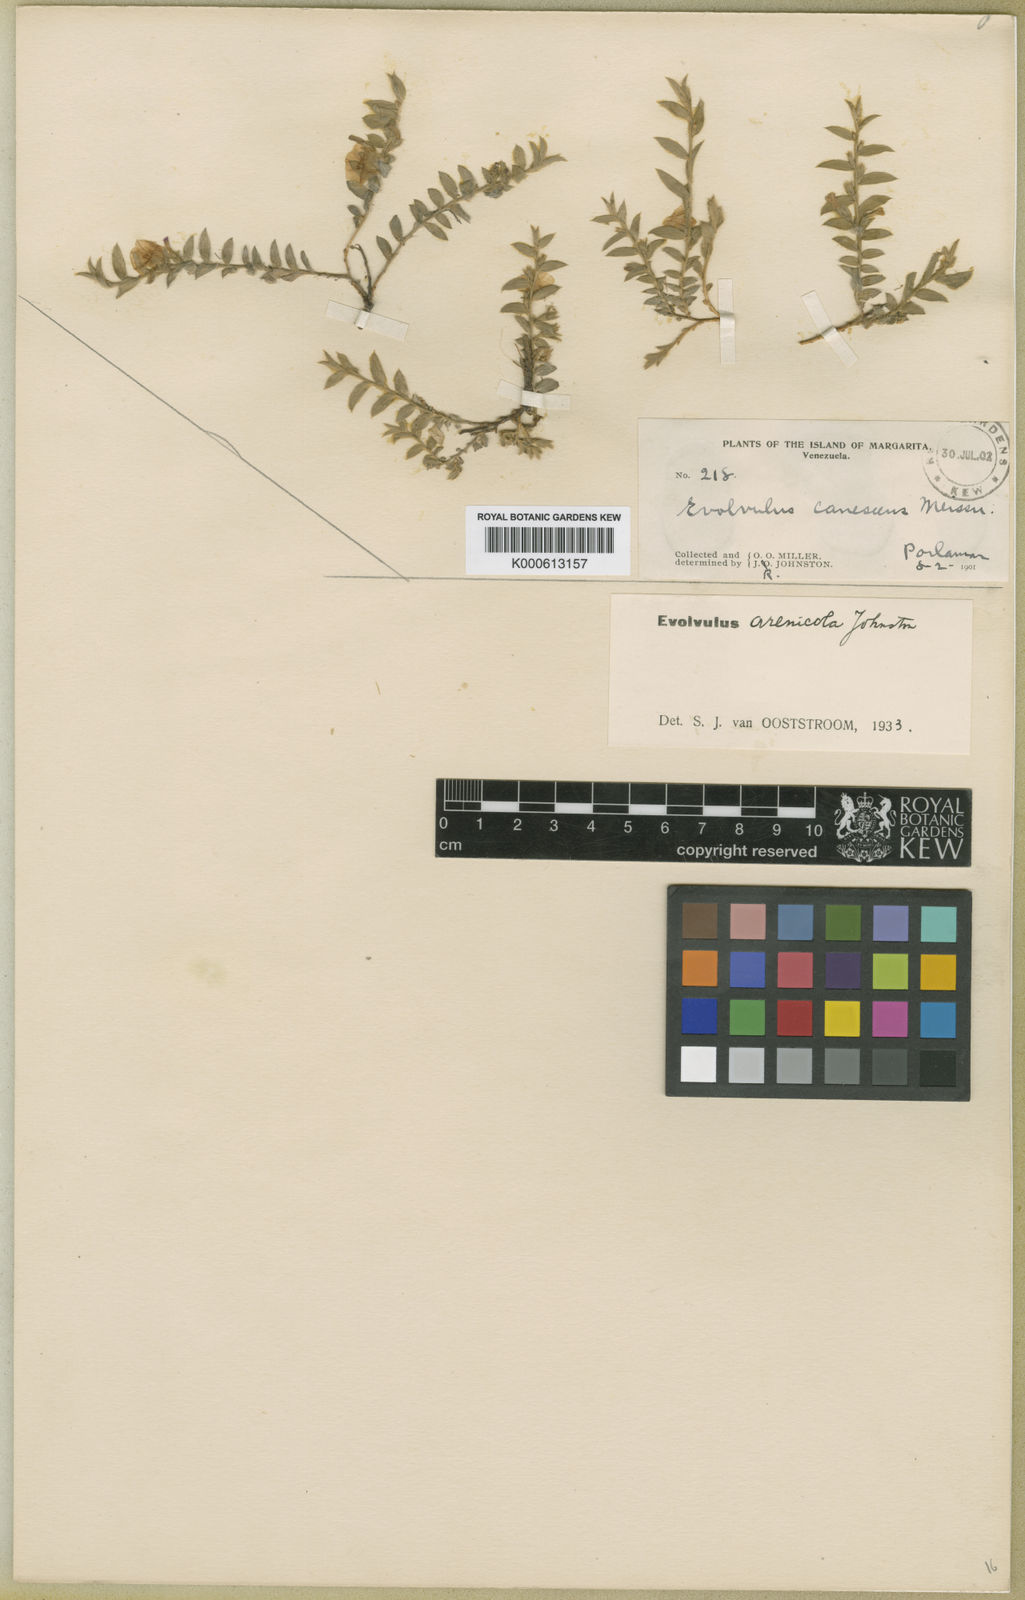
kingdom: Plantae
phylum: Tracheophyta
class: Magnoliopsida
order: Solanales
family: Convolvulaceae
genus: Evolvulus
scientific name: Evolvulus sericeus
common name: Blue dots
